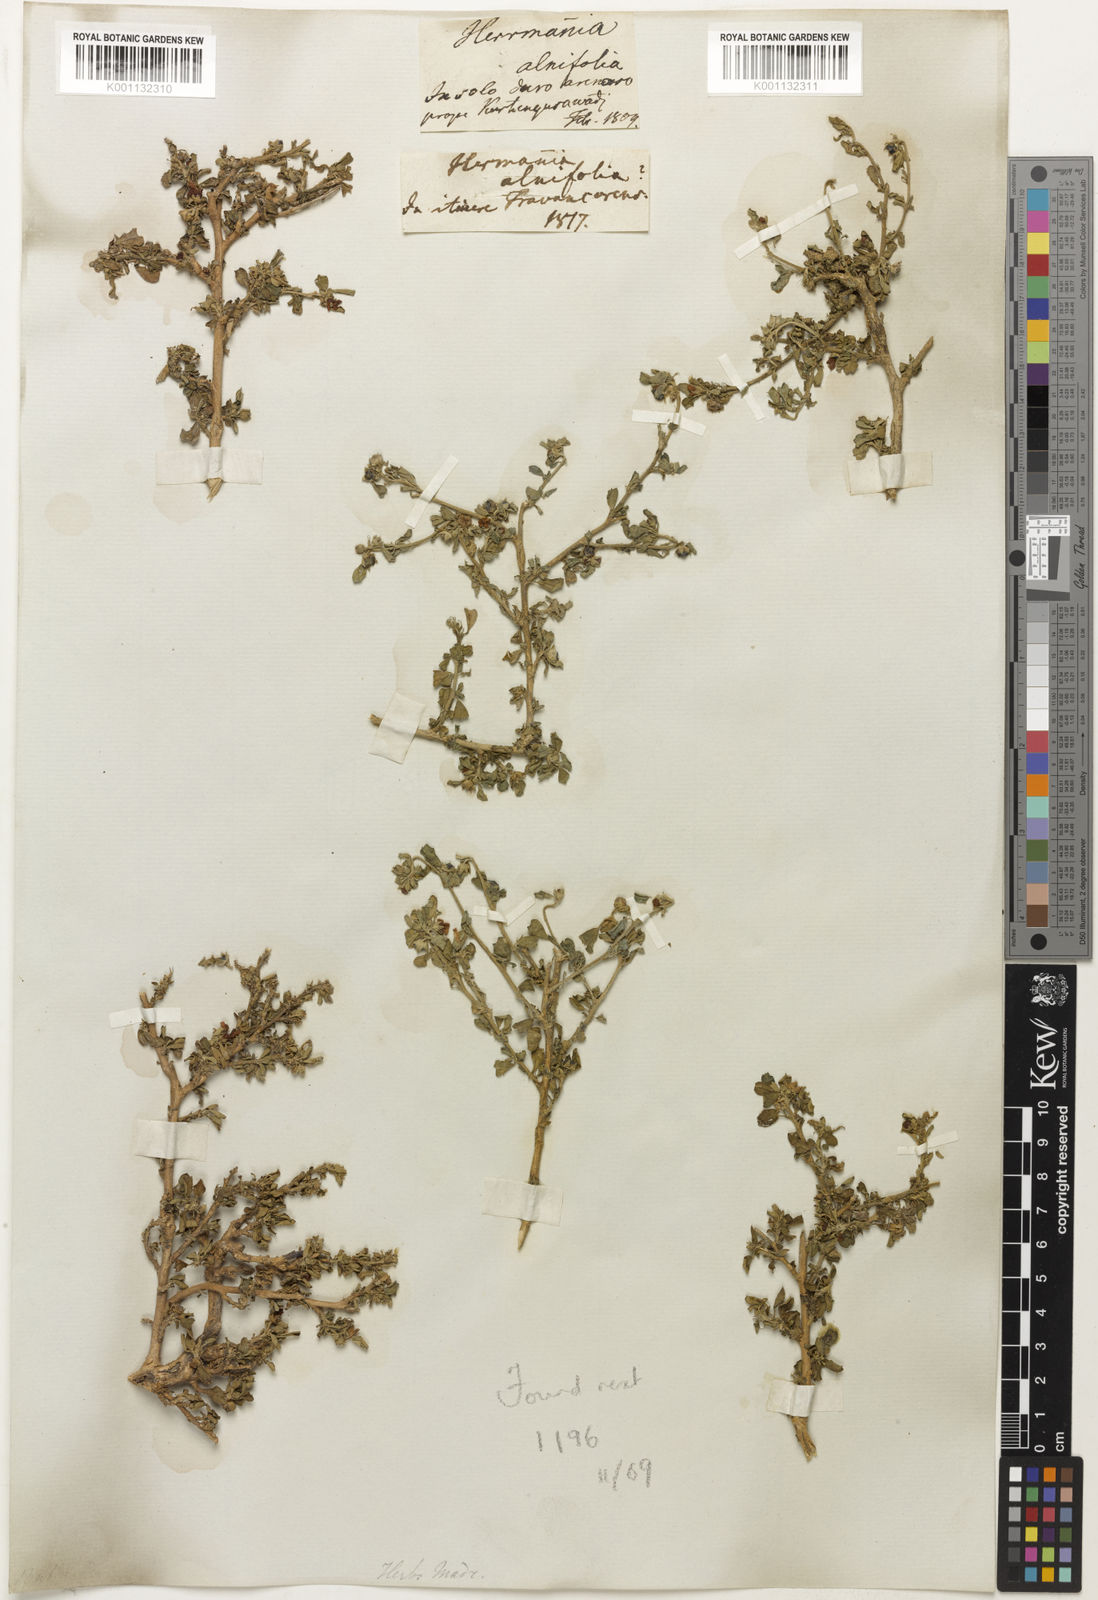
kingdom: Plantae
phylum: Tracheophyta
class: Magnoliopsida
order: Malvales
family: Malvaceae
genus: Melochia
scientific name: Melochia
